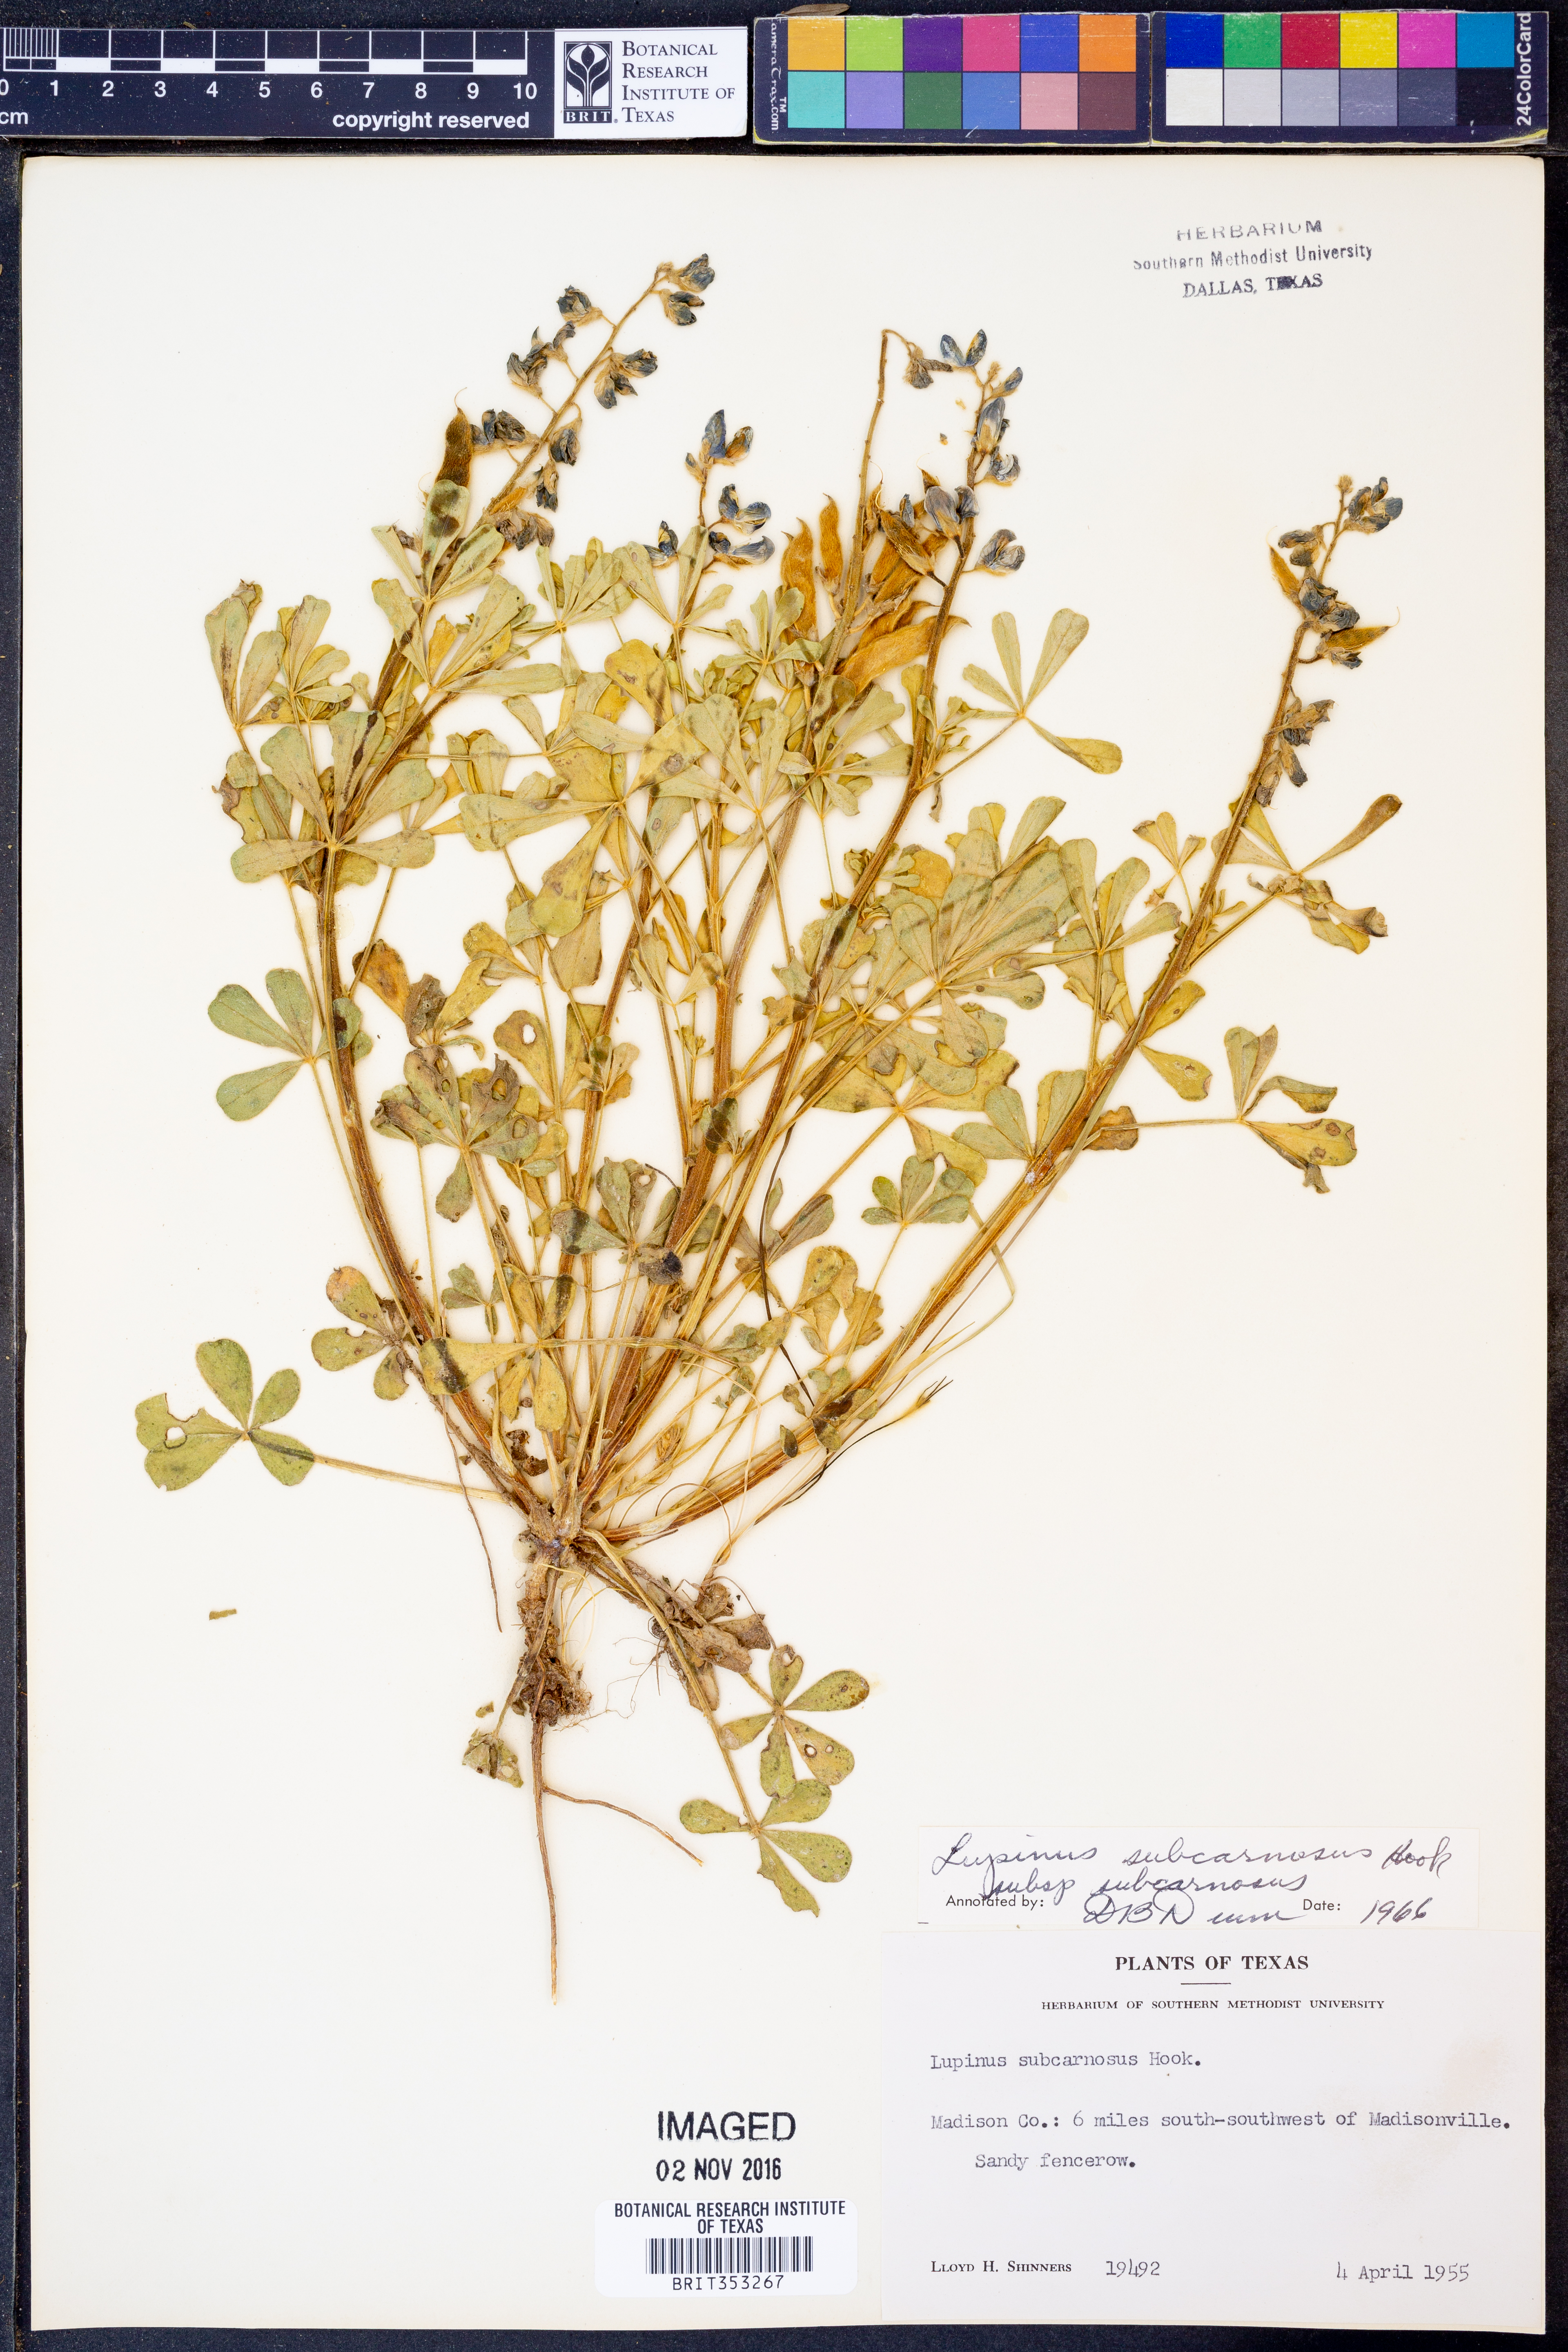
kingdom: Plantae
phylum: Tracheophyta
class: Magnoliopsida
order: Fabales
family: Fabaceae
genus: Lupinus
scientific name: Lupinus subcarnosus
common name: Texas bluebonnet
